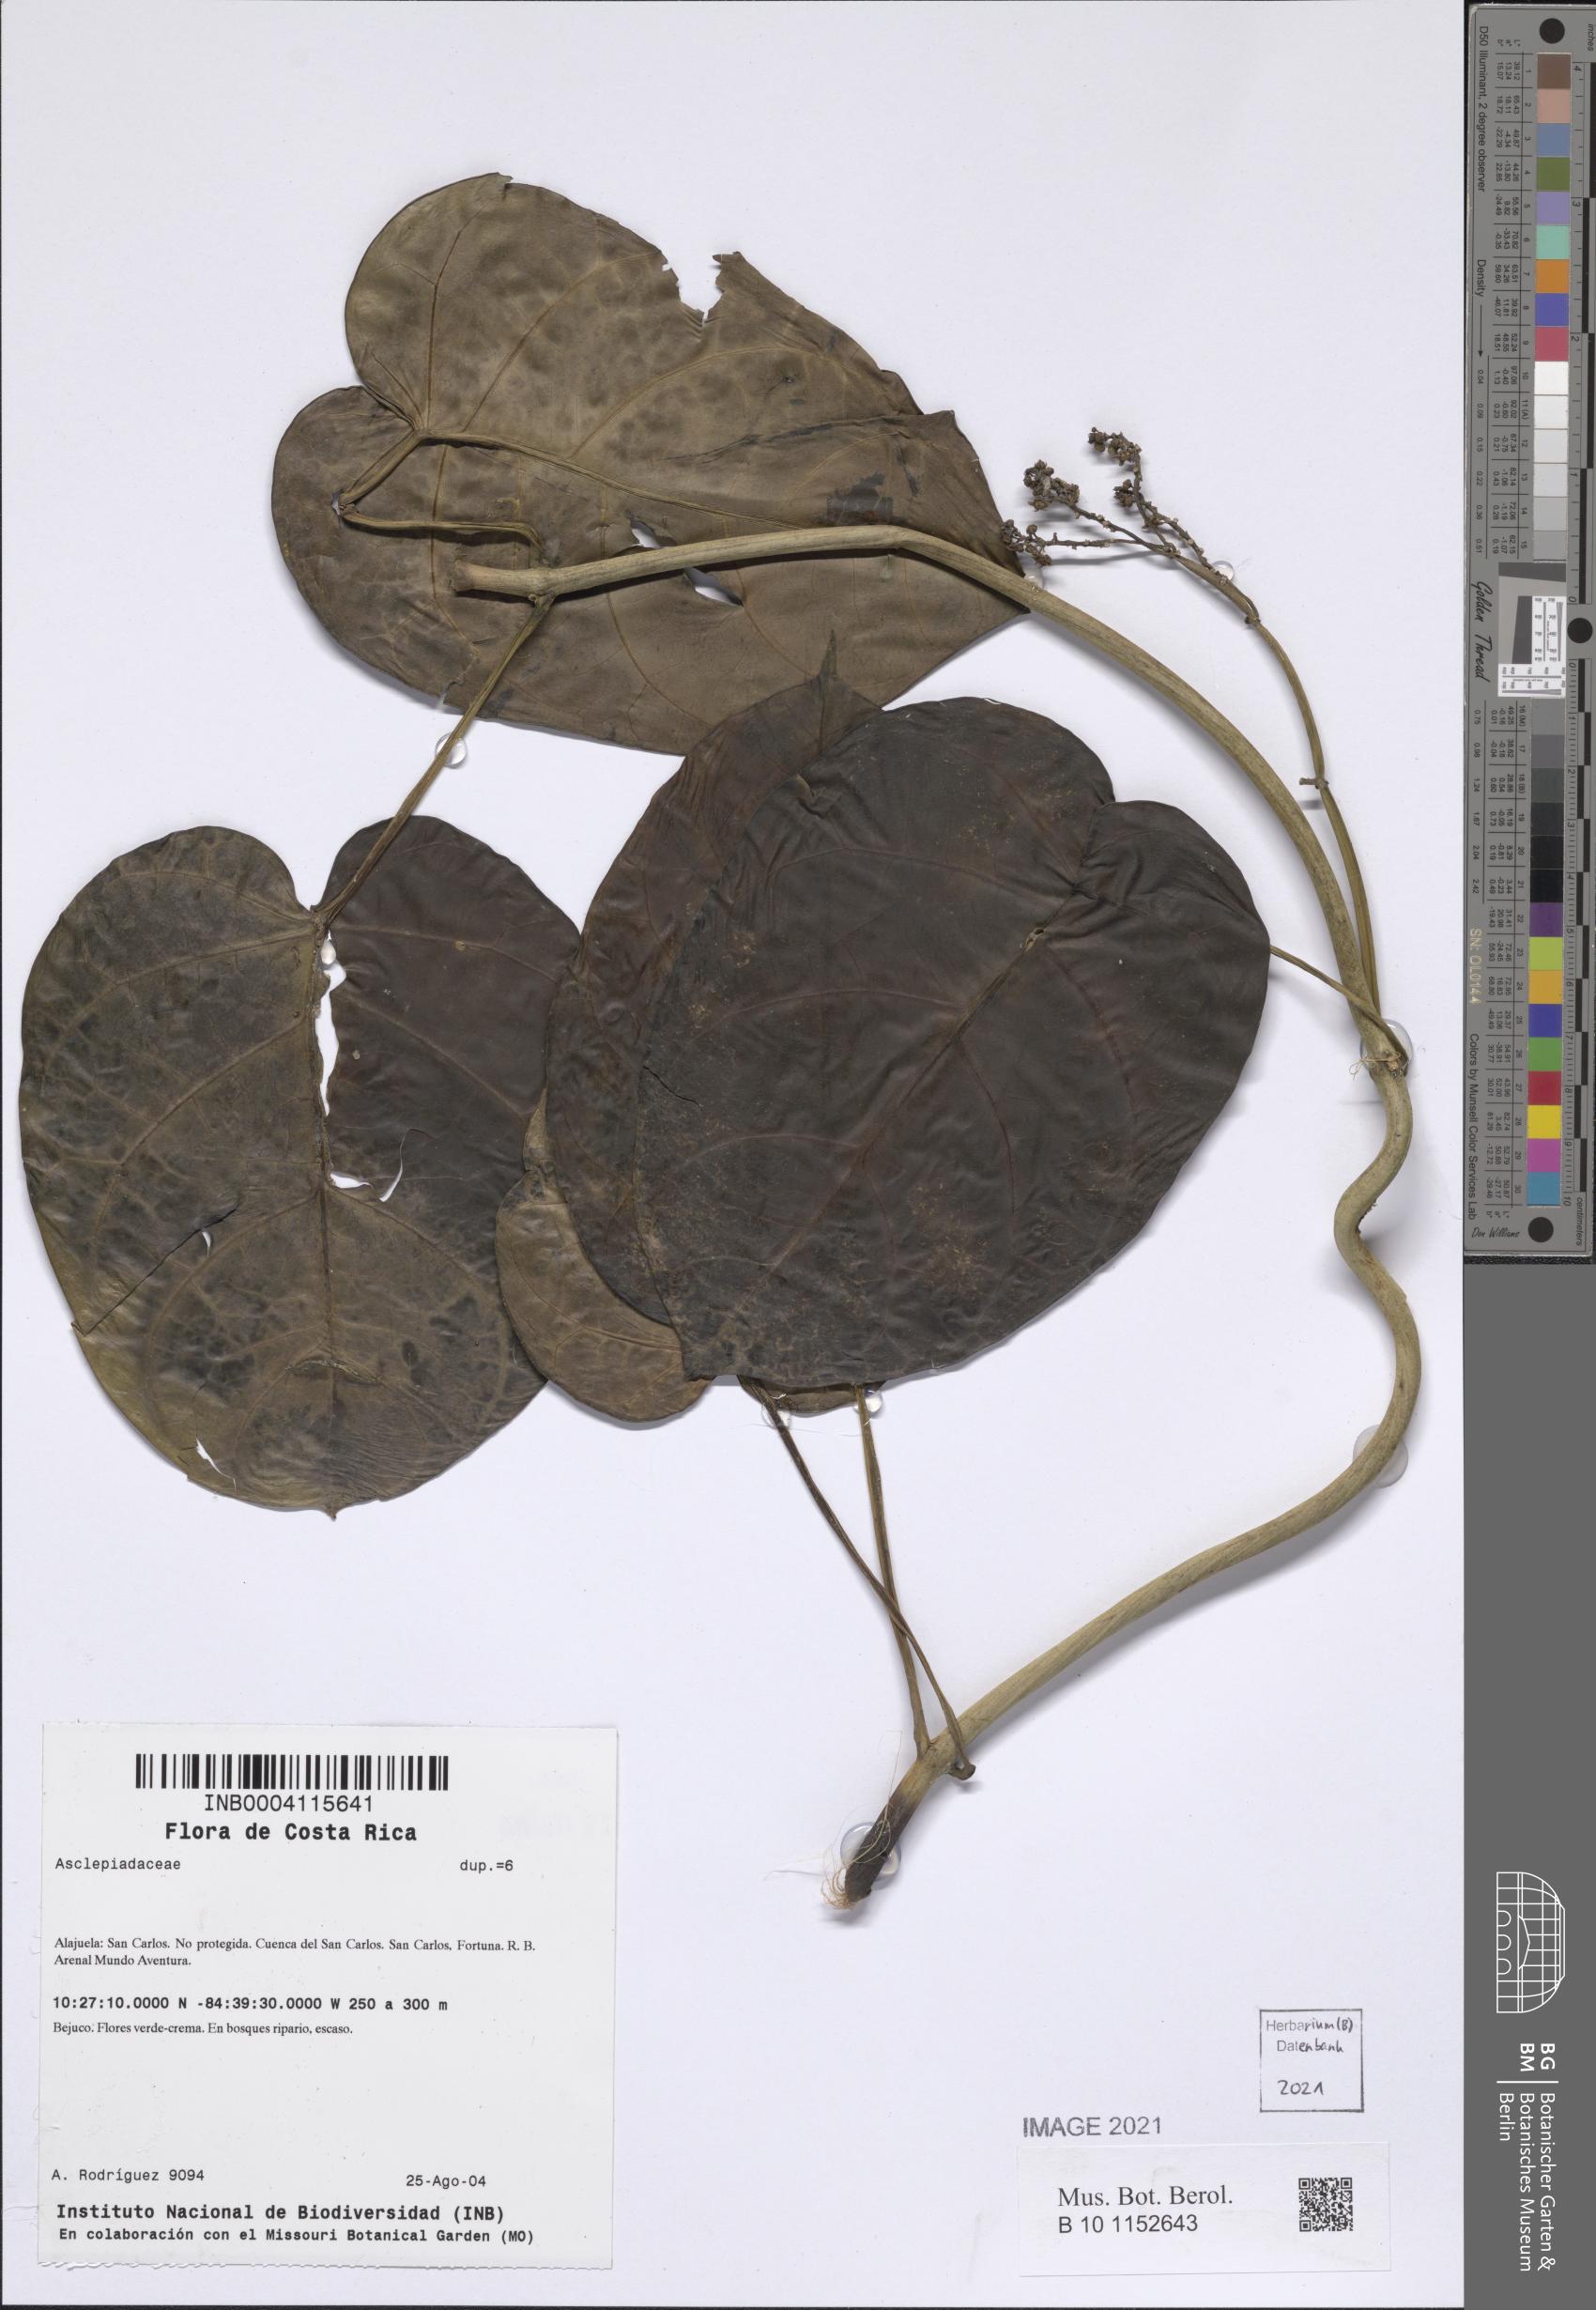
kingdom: Plantae
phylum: Tracheophyta
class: Magnoliopsida
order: Gentianales
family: Apocynaceae
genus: Cynanchum
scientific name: Cynanchum peraffine
